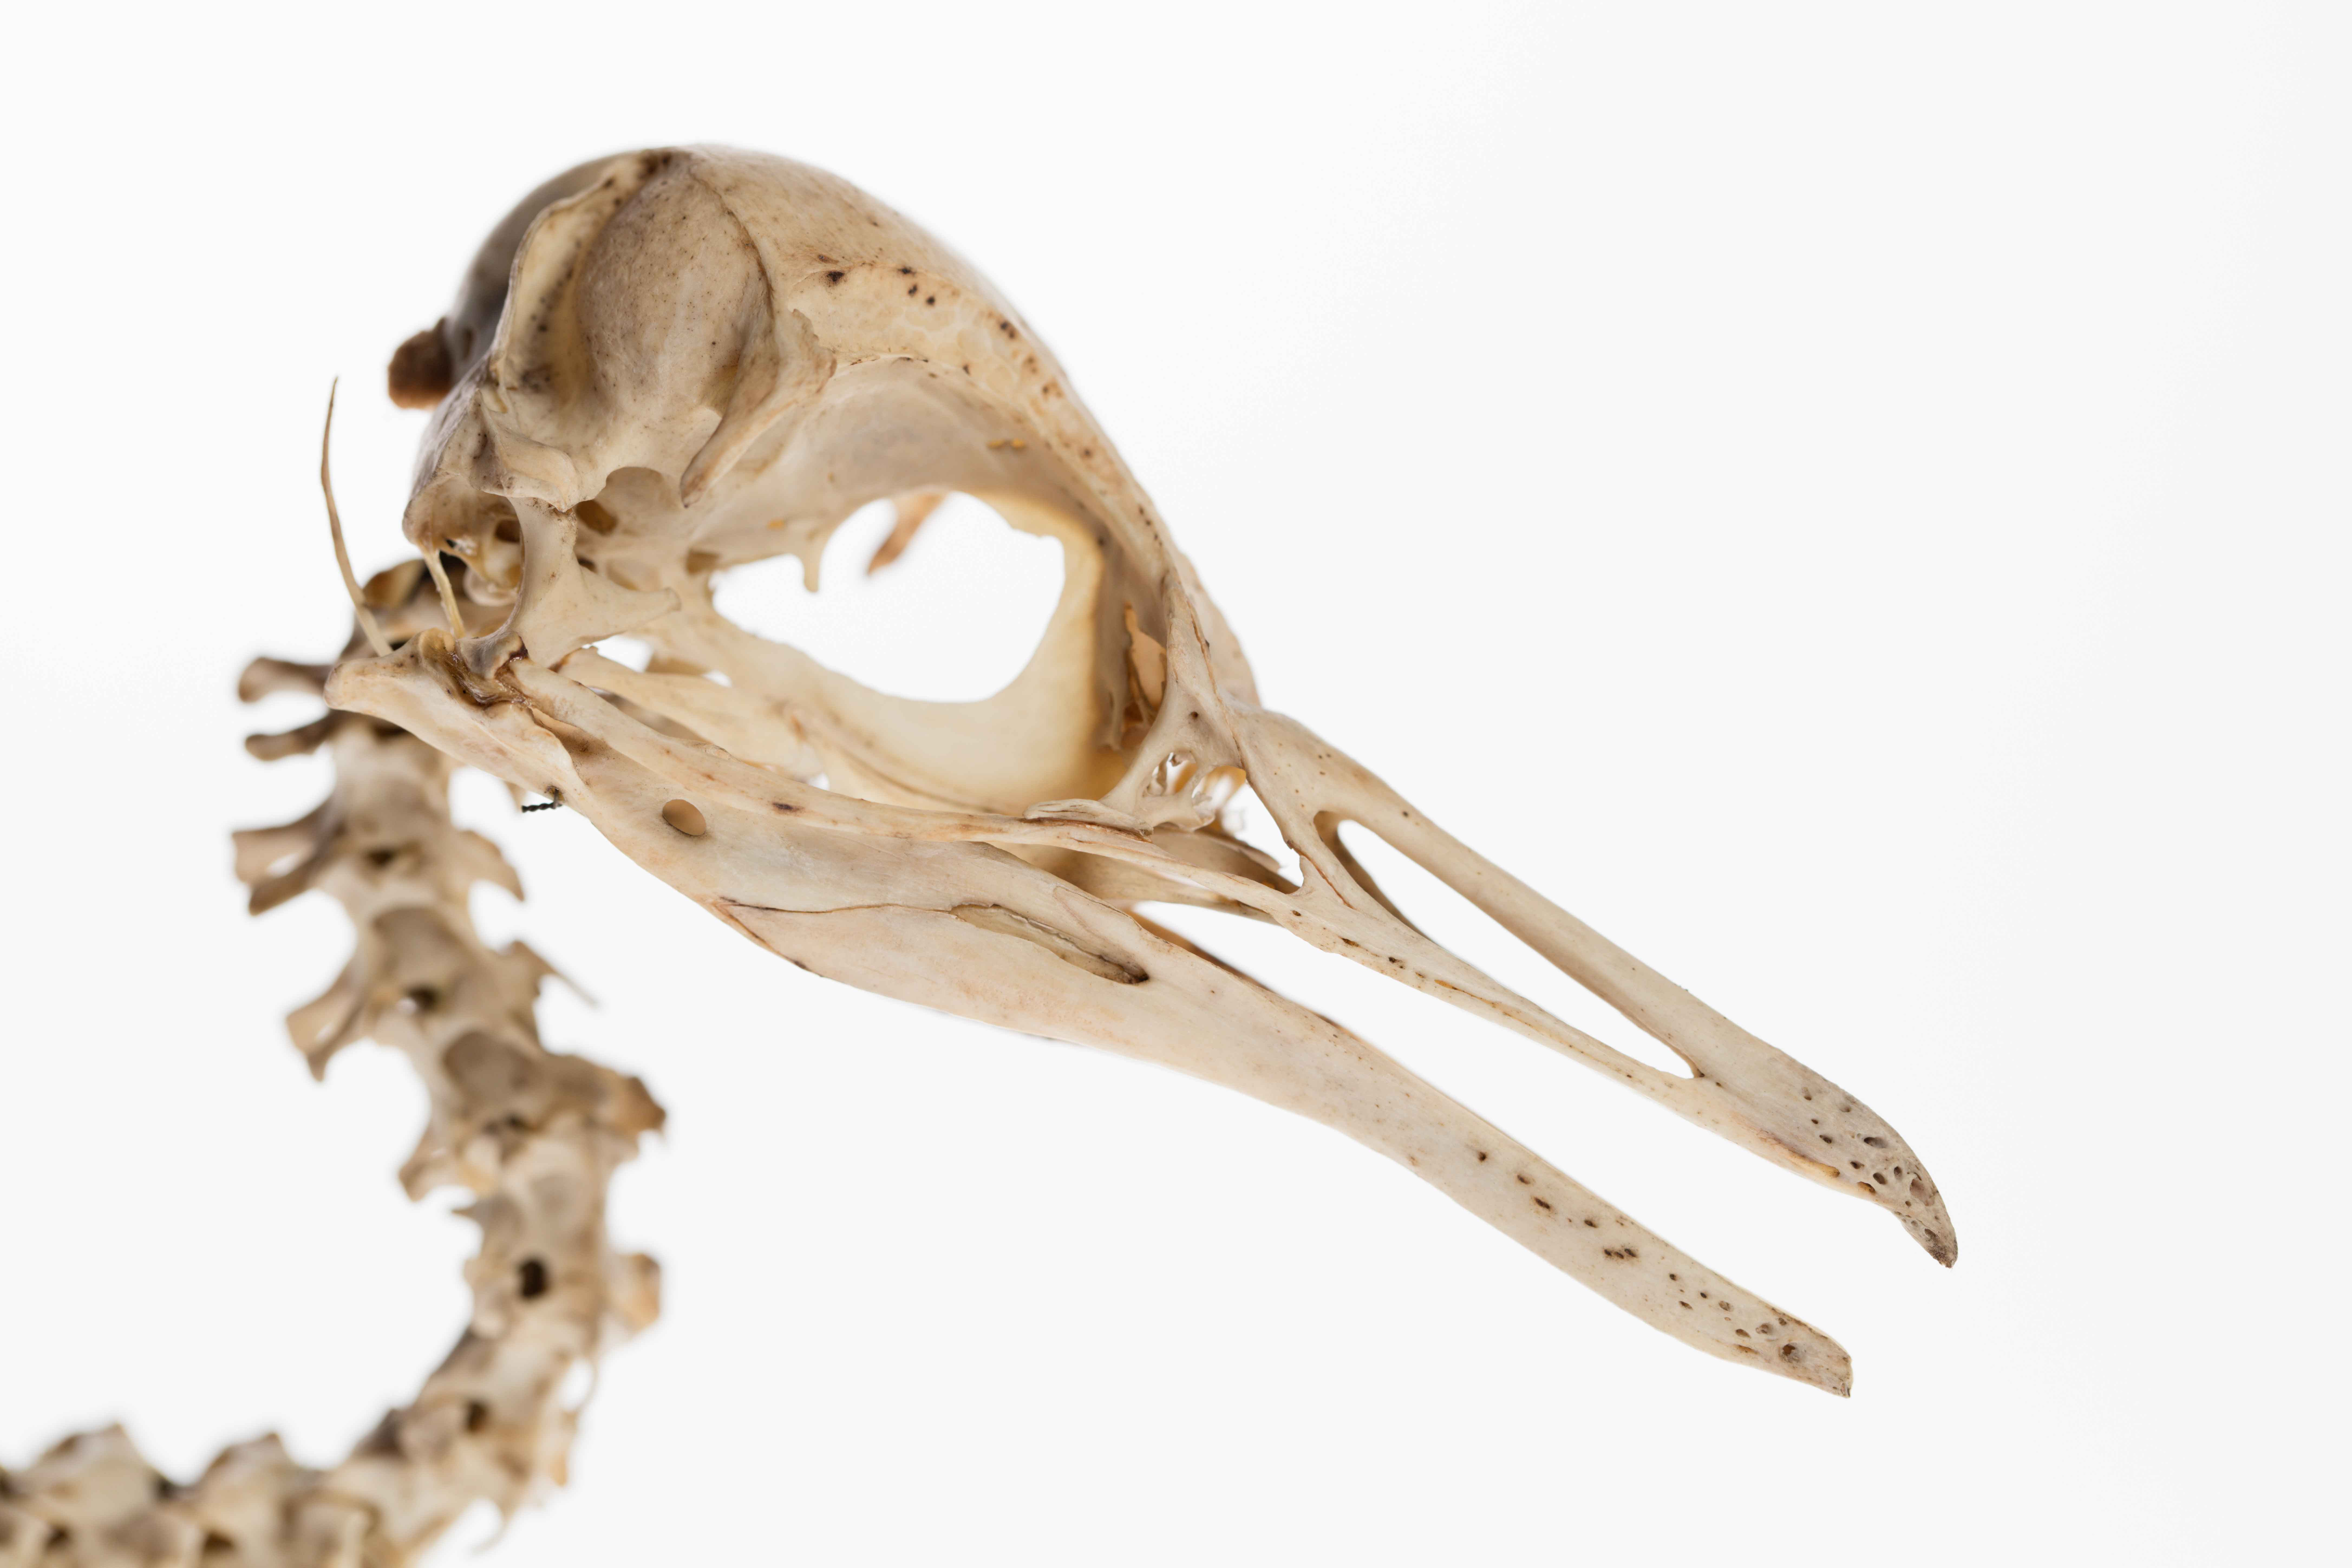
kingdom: Animalia
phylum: Chordata
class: Aves
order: Sphenisciformes
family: Spheniscidae
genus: Eudyptula
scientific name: Eudyptula minor
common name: Little penguin
